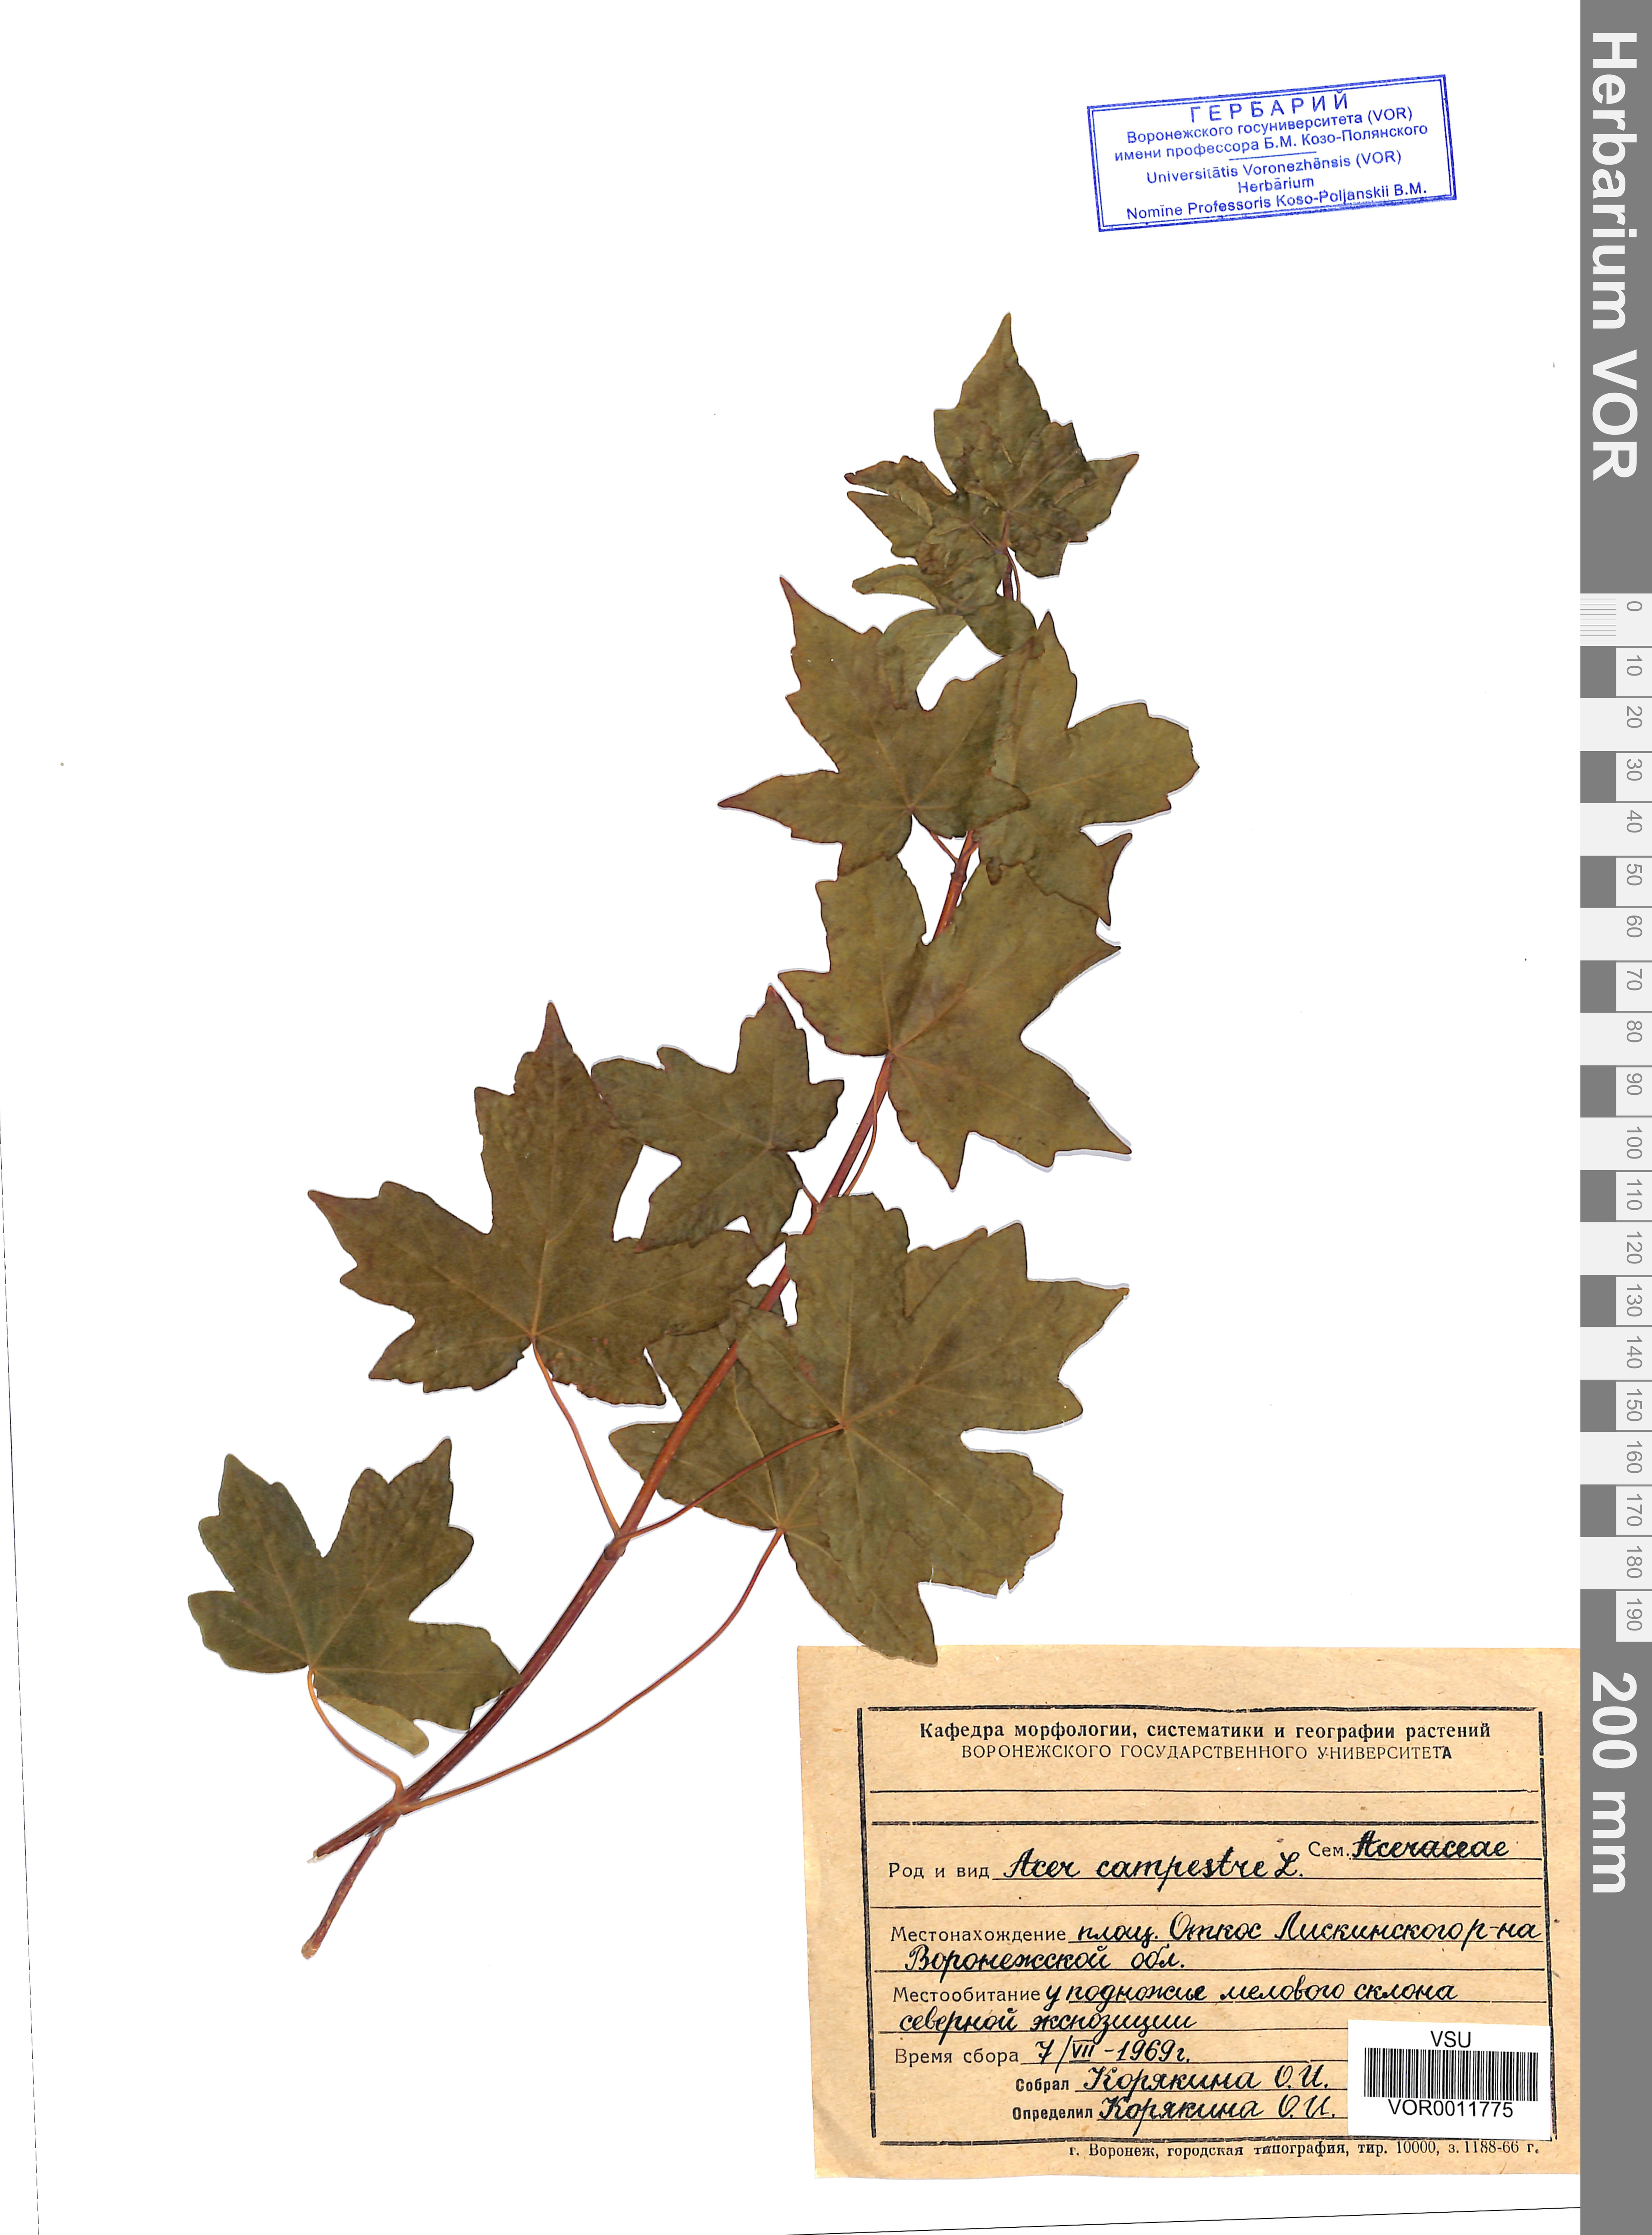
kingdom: Plantae
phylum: Tracheophyta
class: Magnoliopsida
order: Sapindales
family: Sapindaceae
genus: Acer
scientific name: Acer campestre
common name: Field maple
